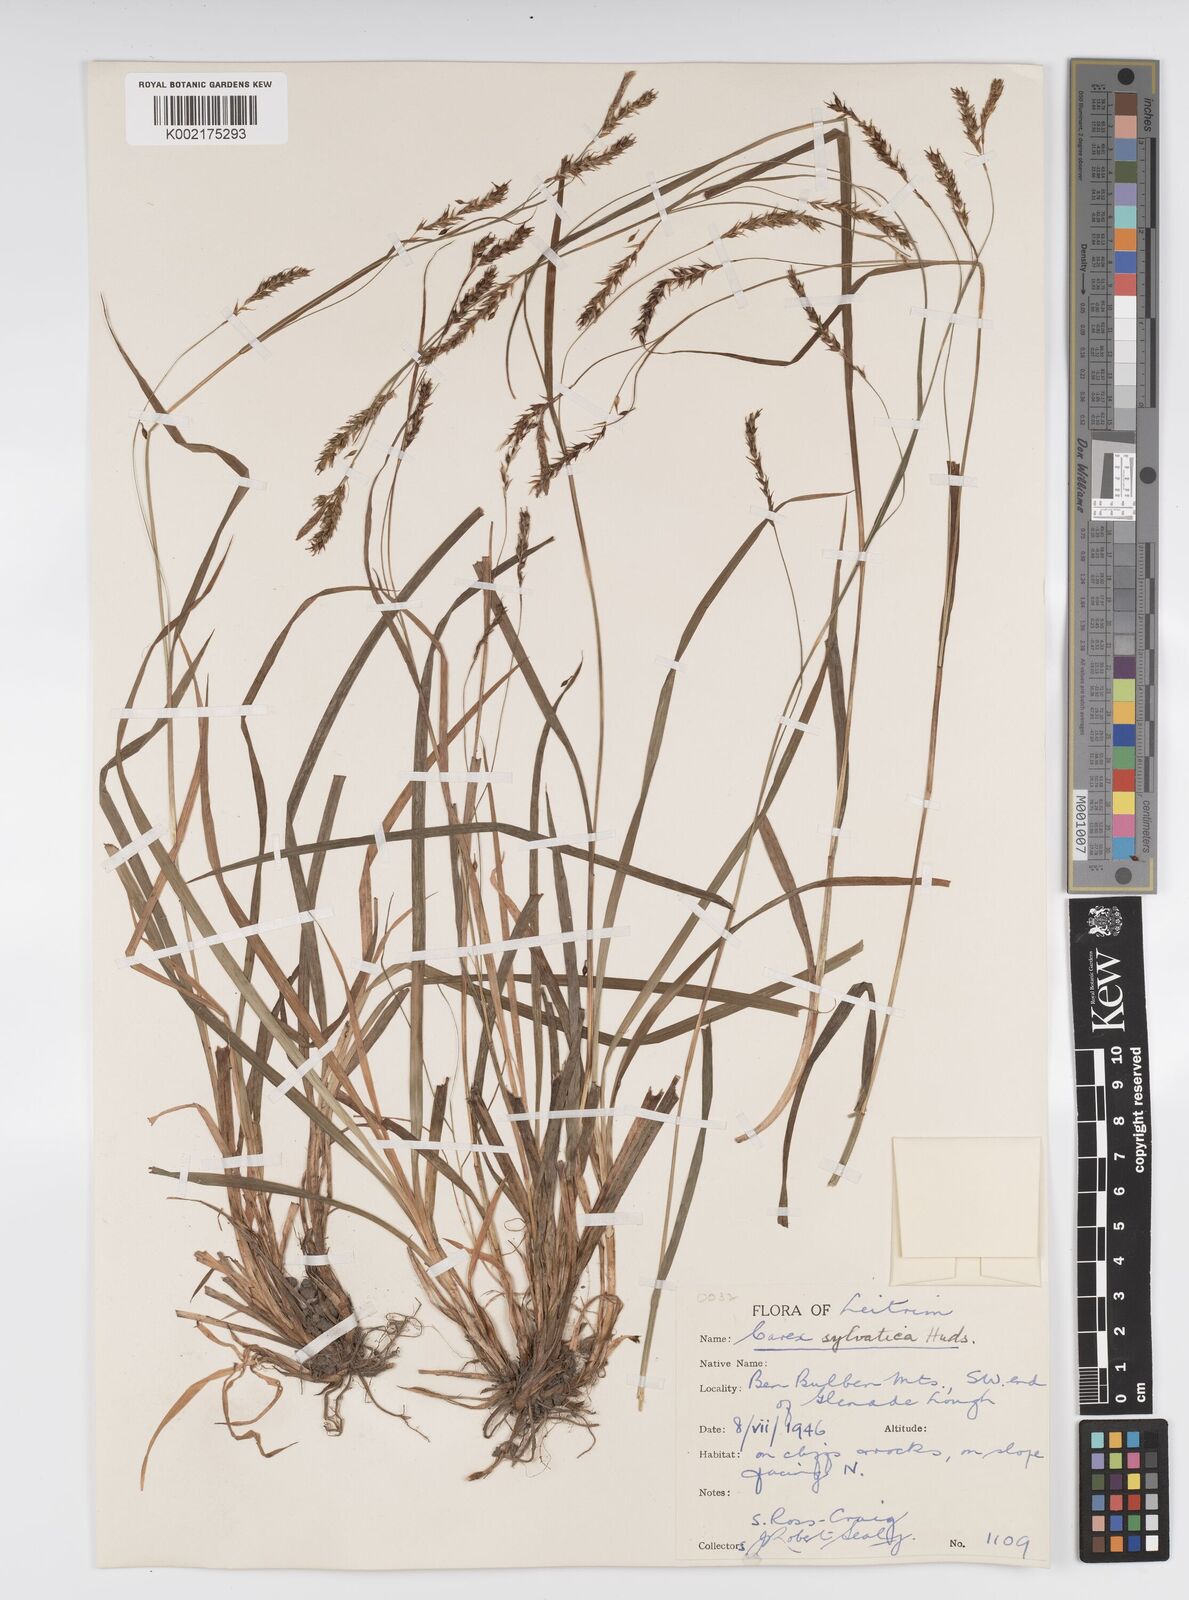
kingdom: Plantae
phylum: Tracheophyta
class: Liliopsida
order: Poales
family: Cyperaceae
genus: Carex
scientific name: Carex sylvatica
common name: Wood-sedge
